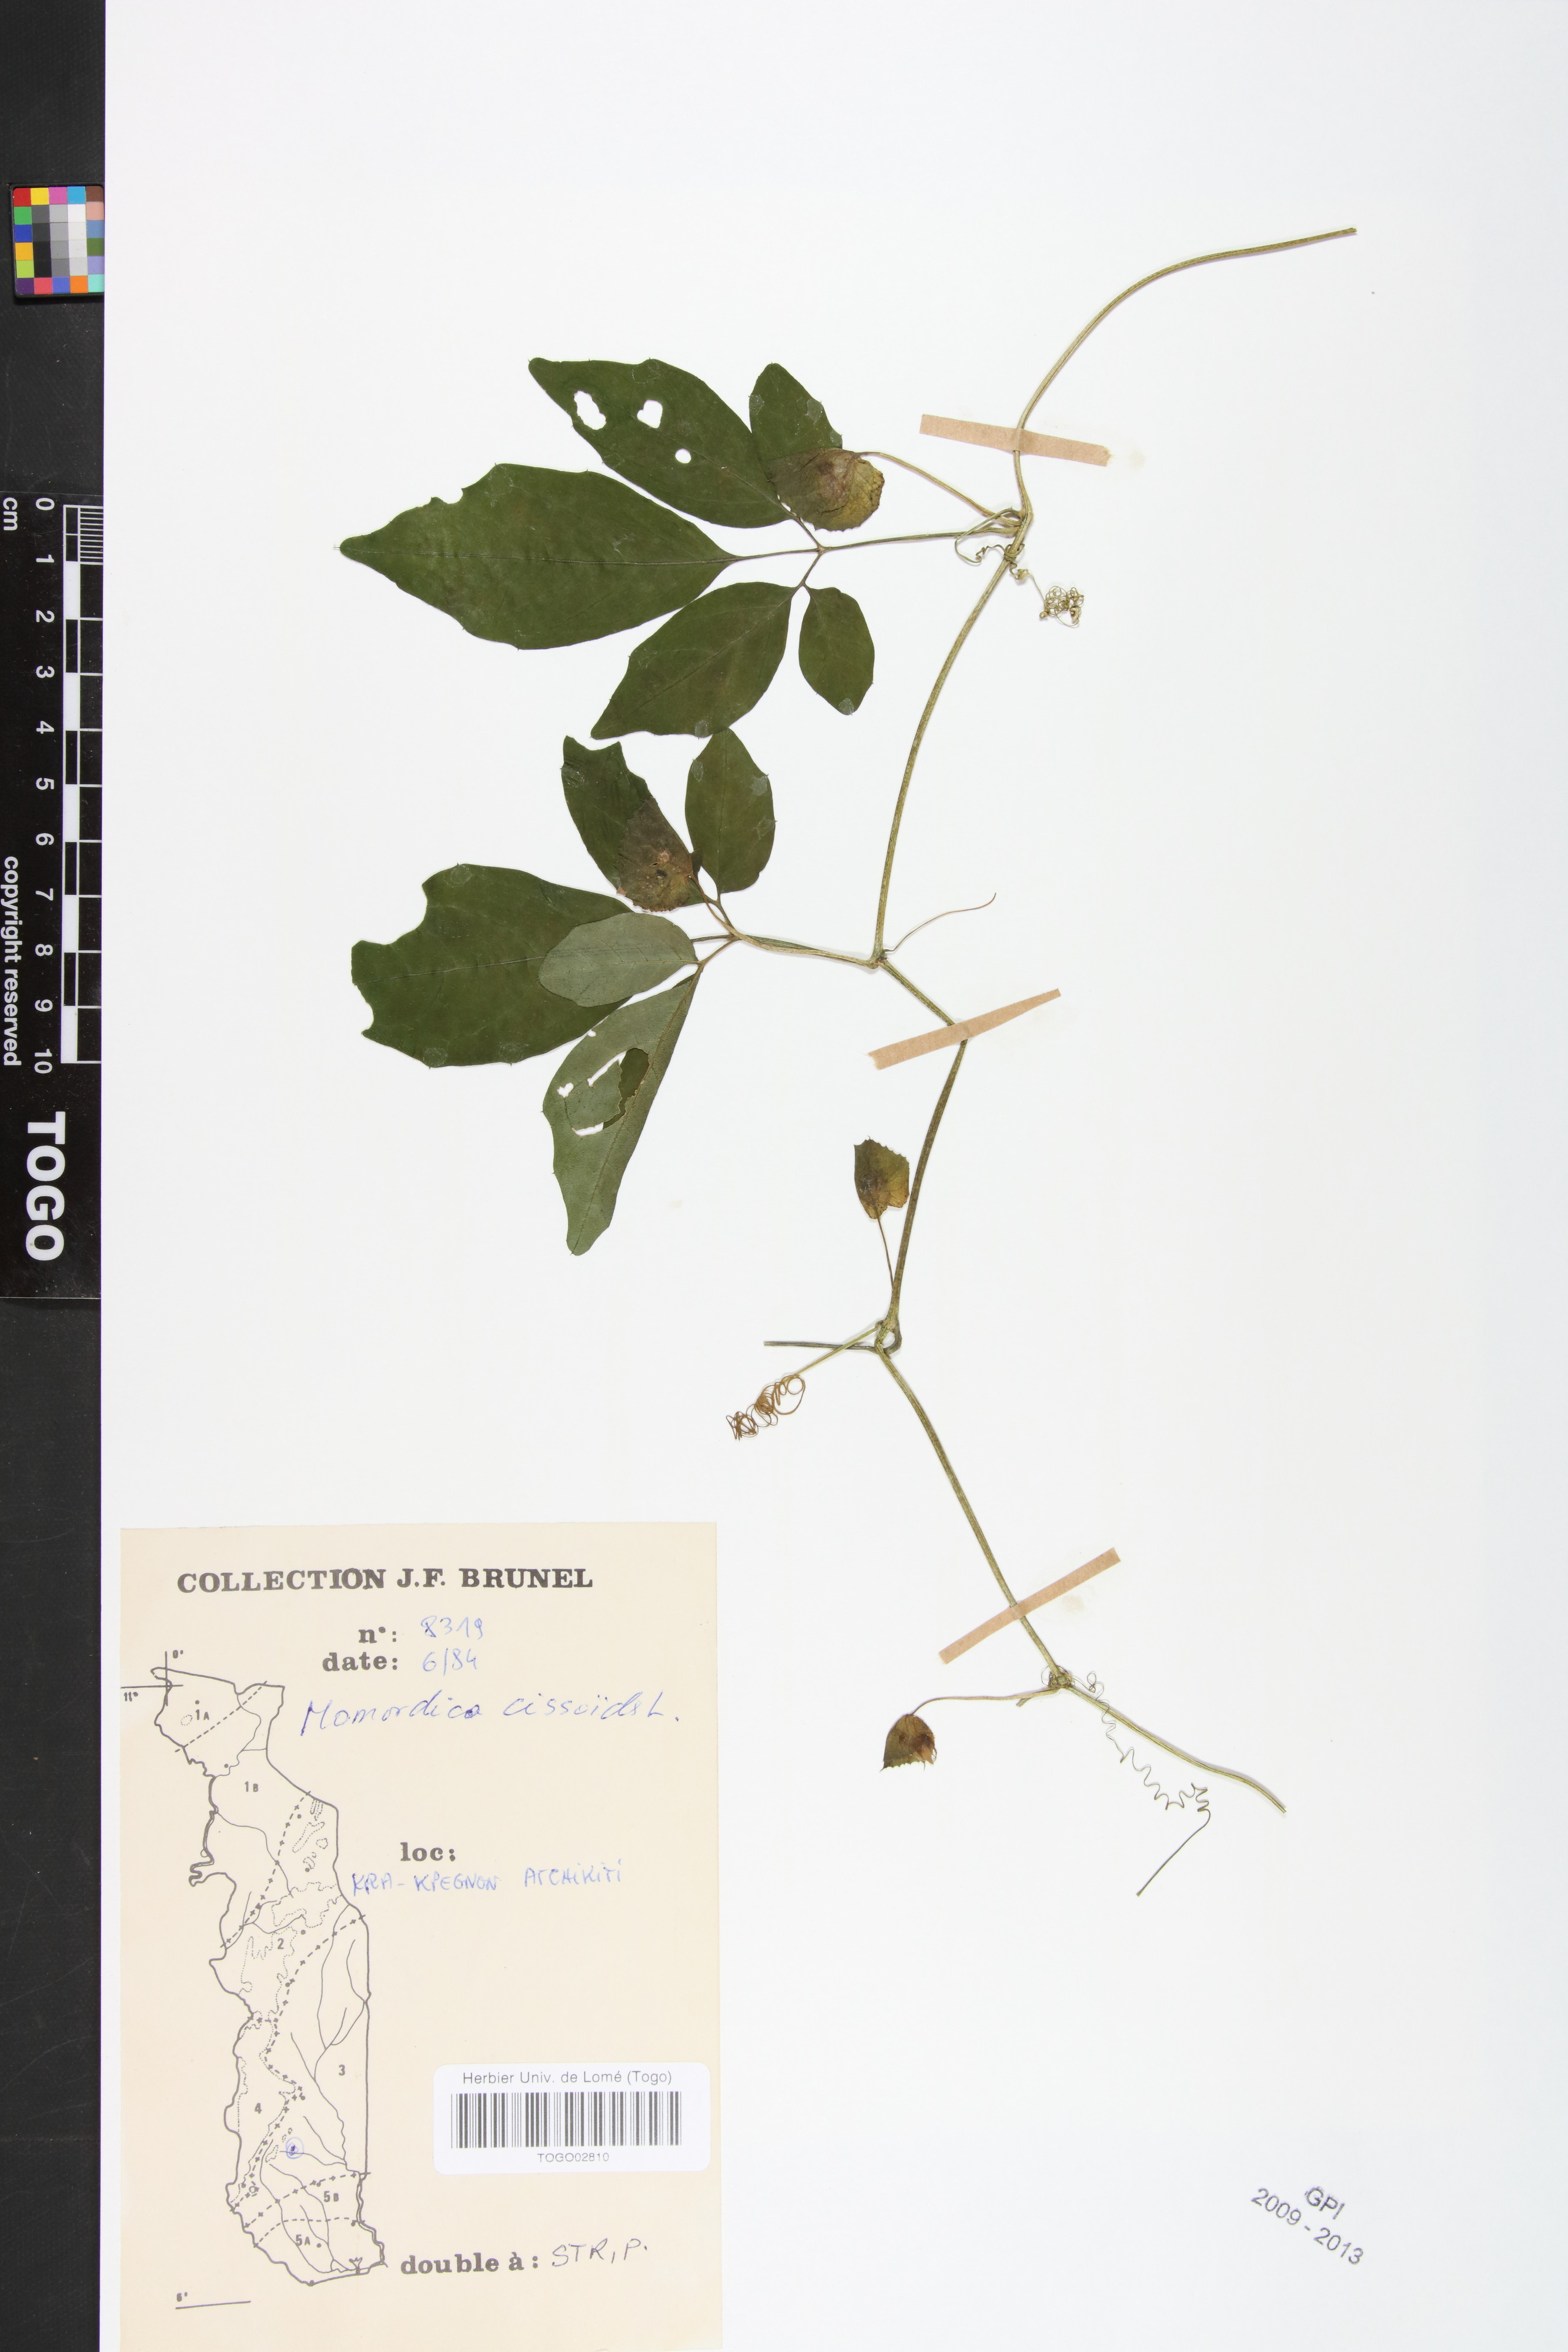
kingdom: Plantae
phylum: Tracheophyta
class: Magnoliopsida
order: Cucurbitales
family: Cucurbitaceae
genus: Momordica
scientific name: Momordica cissoides
